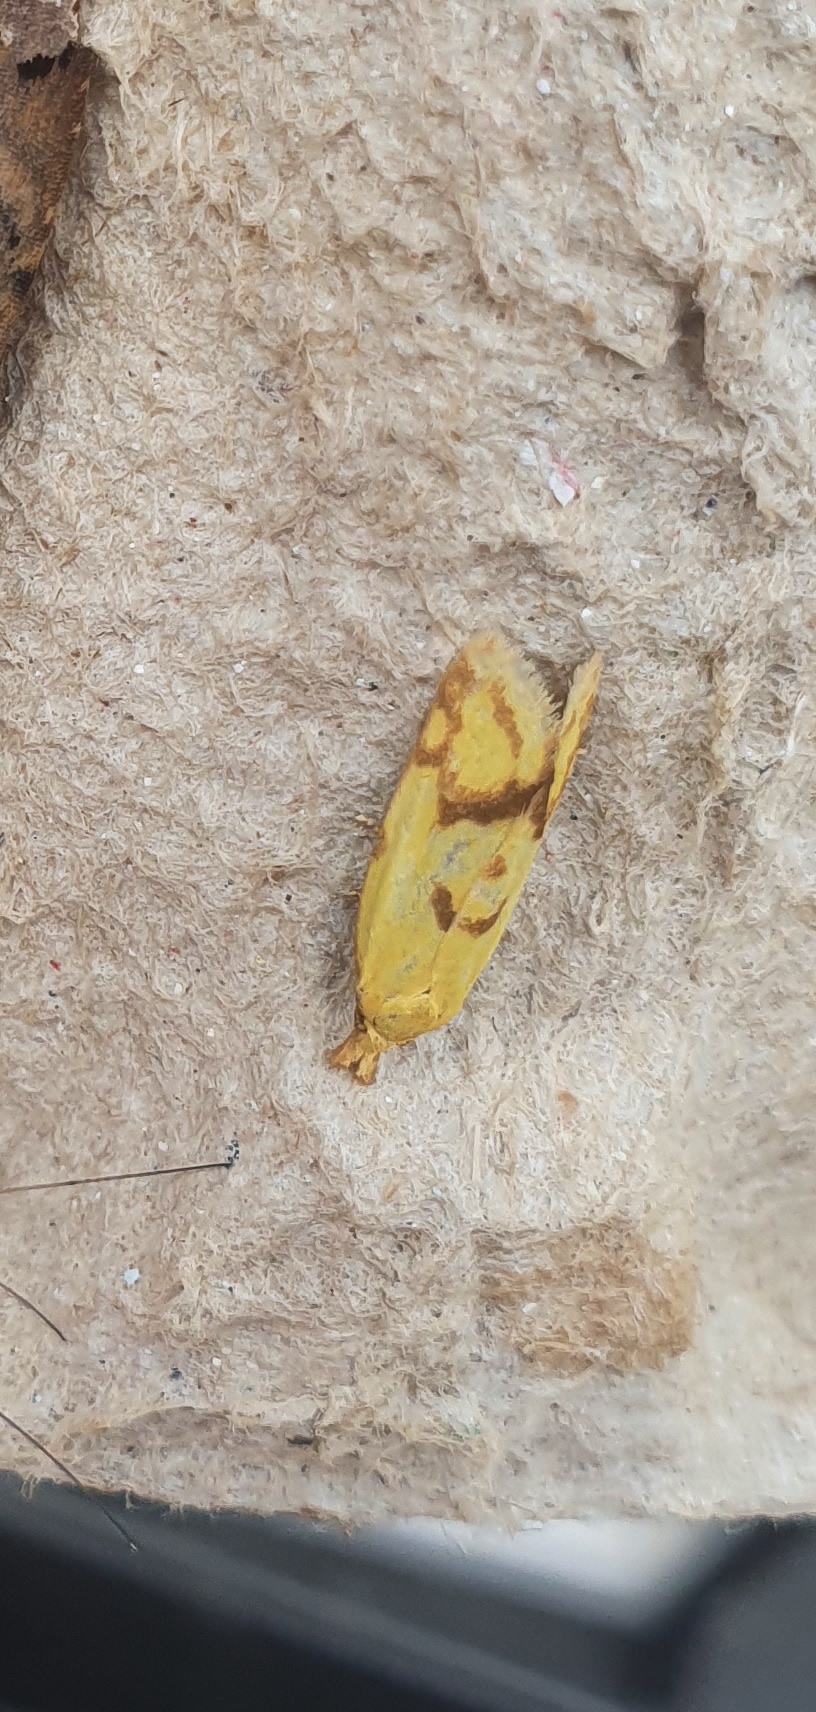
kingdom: Animalia
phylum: Arthropoda
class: Insecta
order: Lepidoptera
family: Tortricidae
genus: Agapeta
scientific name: Agapeta hamana
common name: Tidselgulvikler
